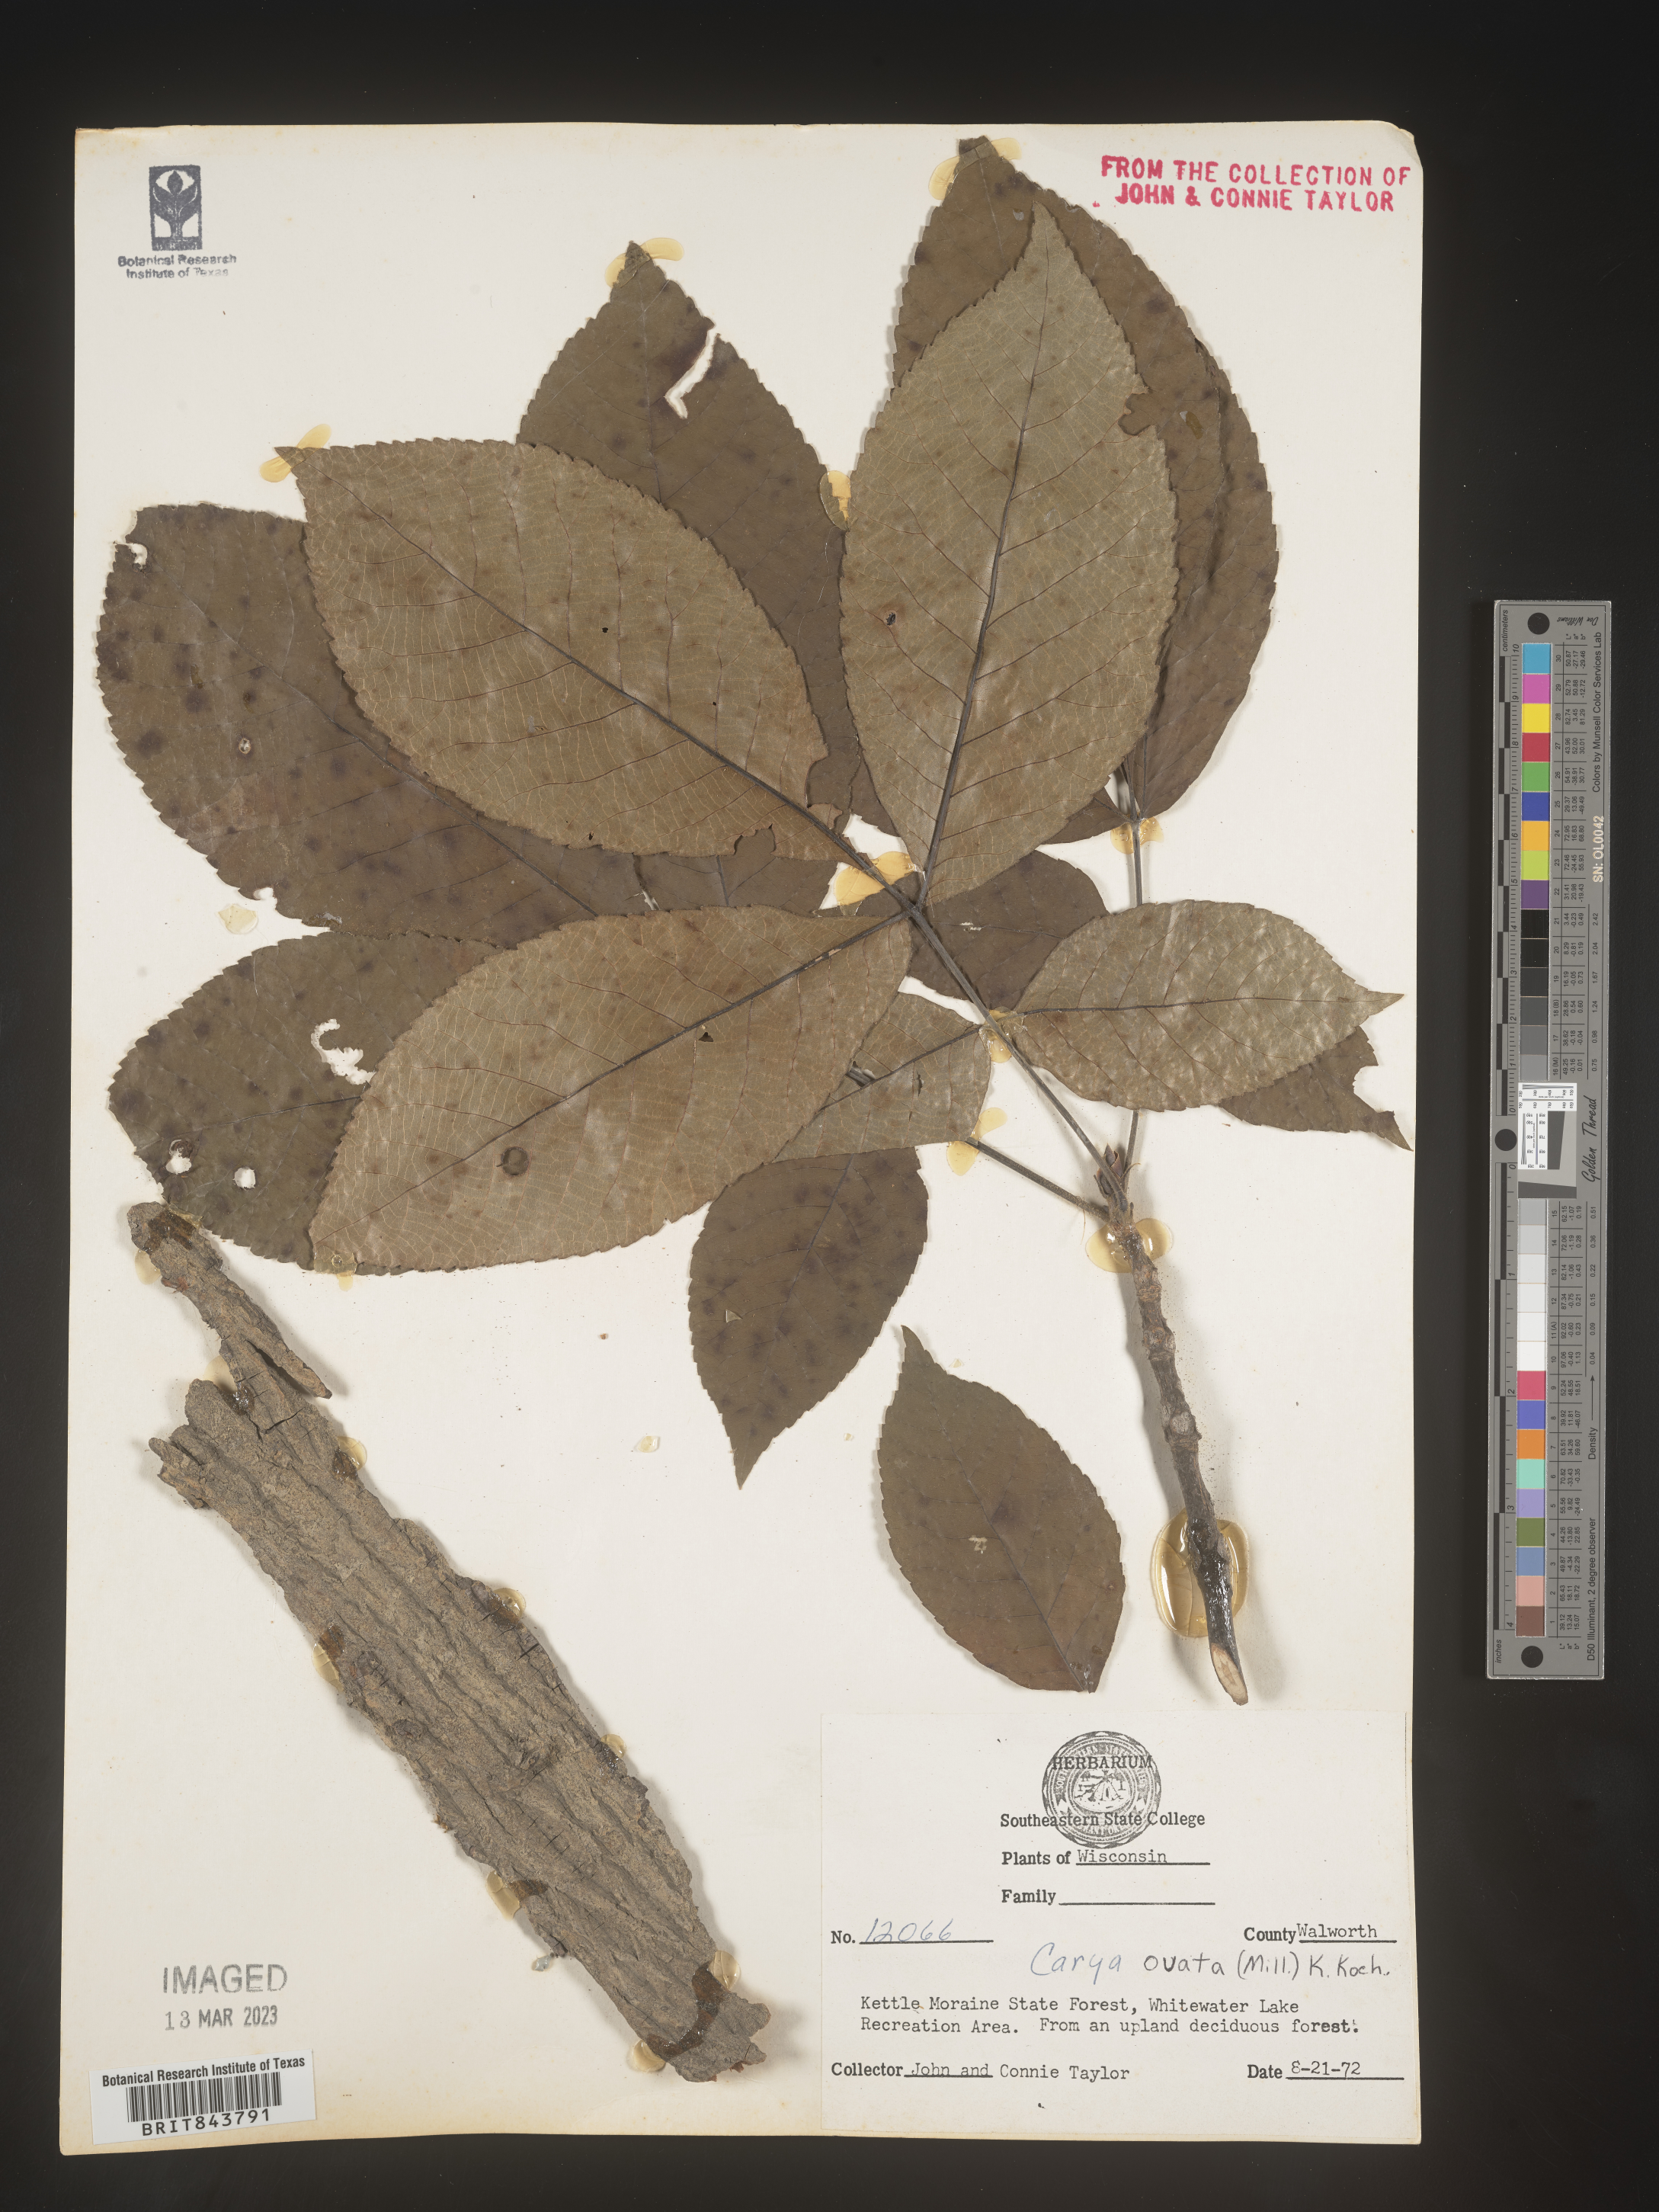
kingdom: Plantae
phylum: Tracheophyta
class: Magnoliopsida
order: Fagales
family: Juglandaceae
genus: Carya
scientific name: Carya ovata
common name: Shagbark hickory
